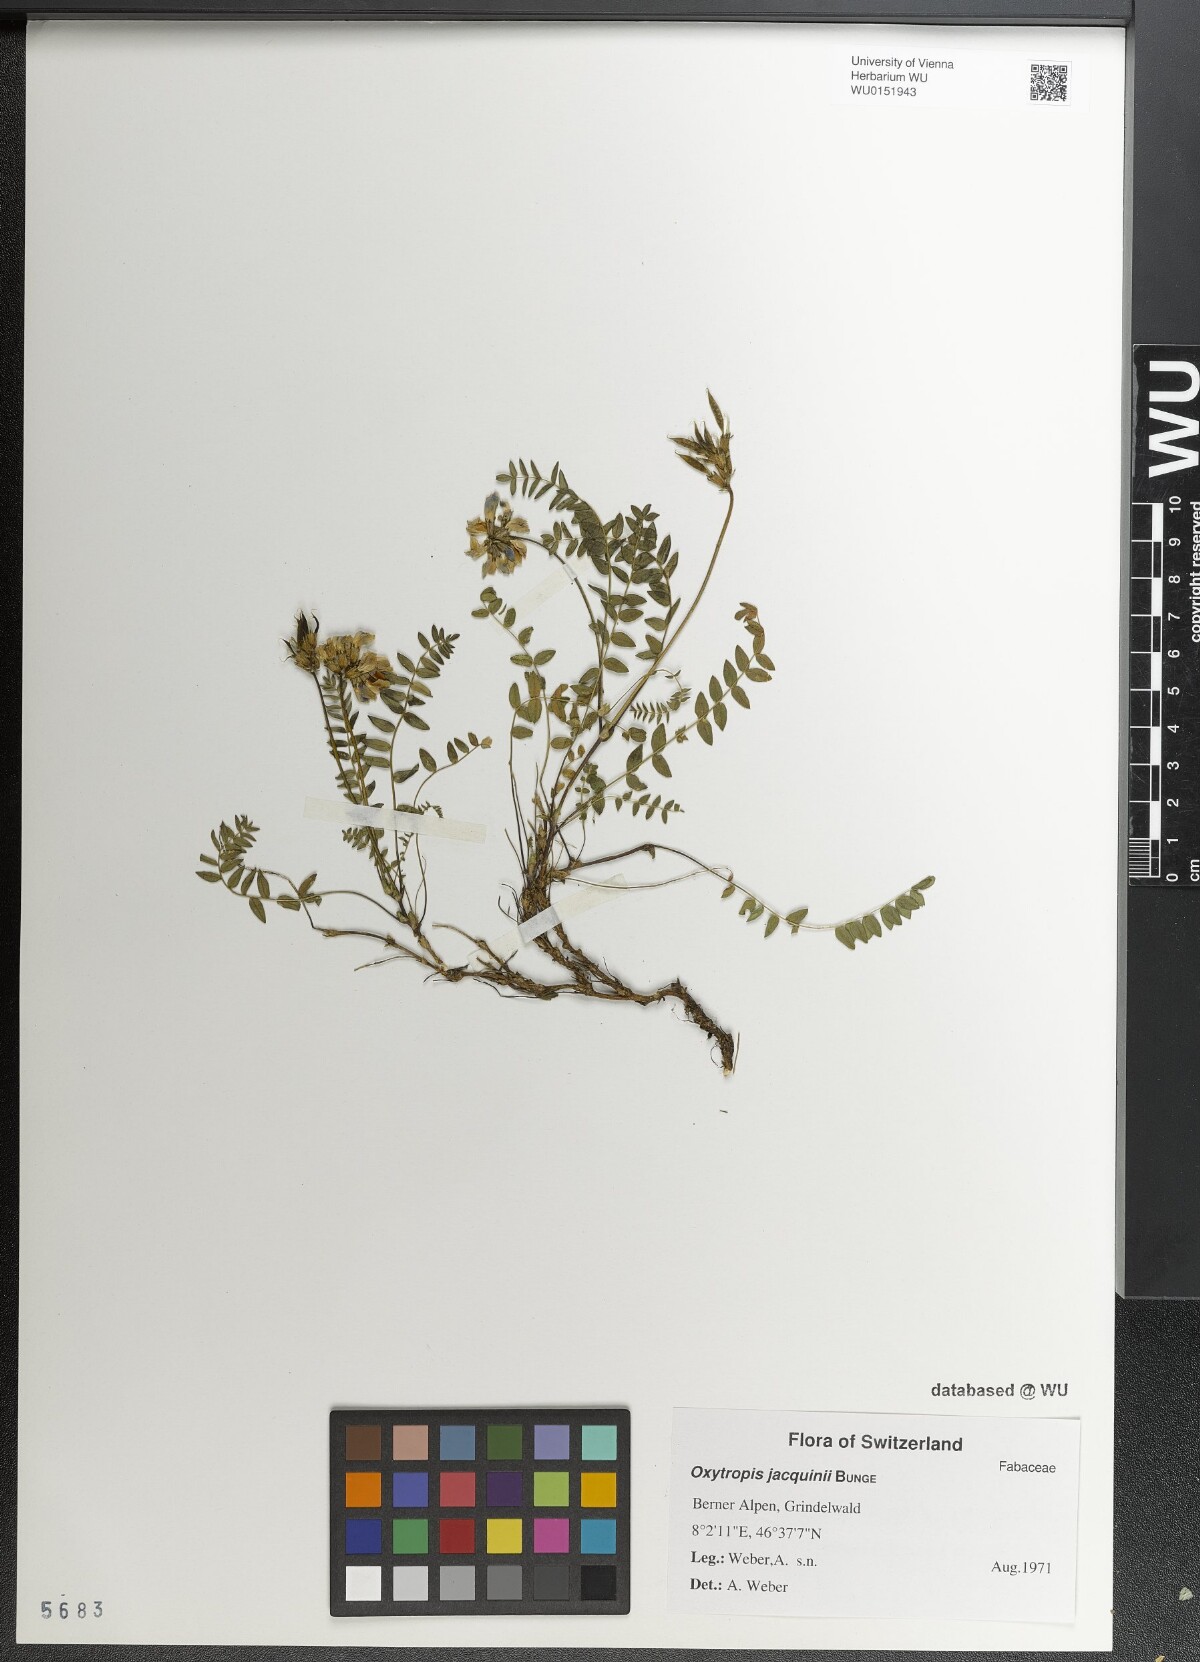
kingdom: Plantae
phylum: Tracheophyta
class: Magnoliopsida
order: Fabales
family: Fabaceae
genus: Oxytropis
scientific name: Oxytropis montana
